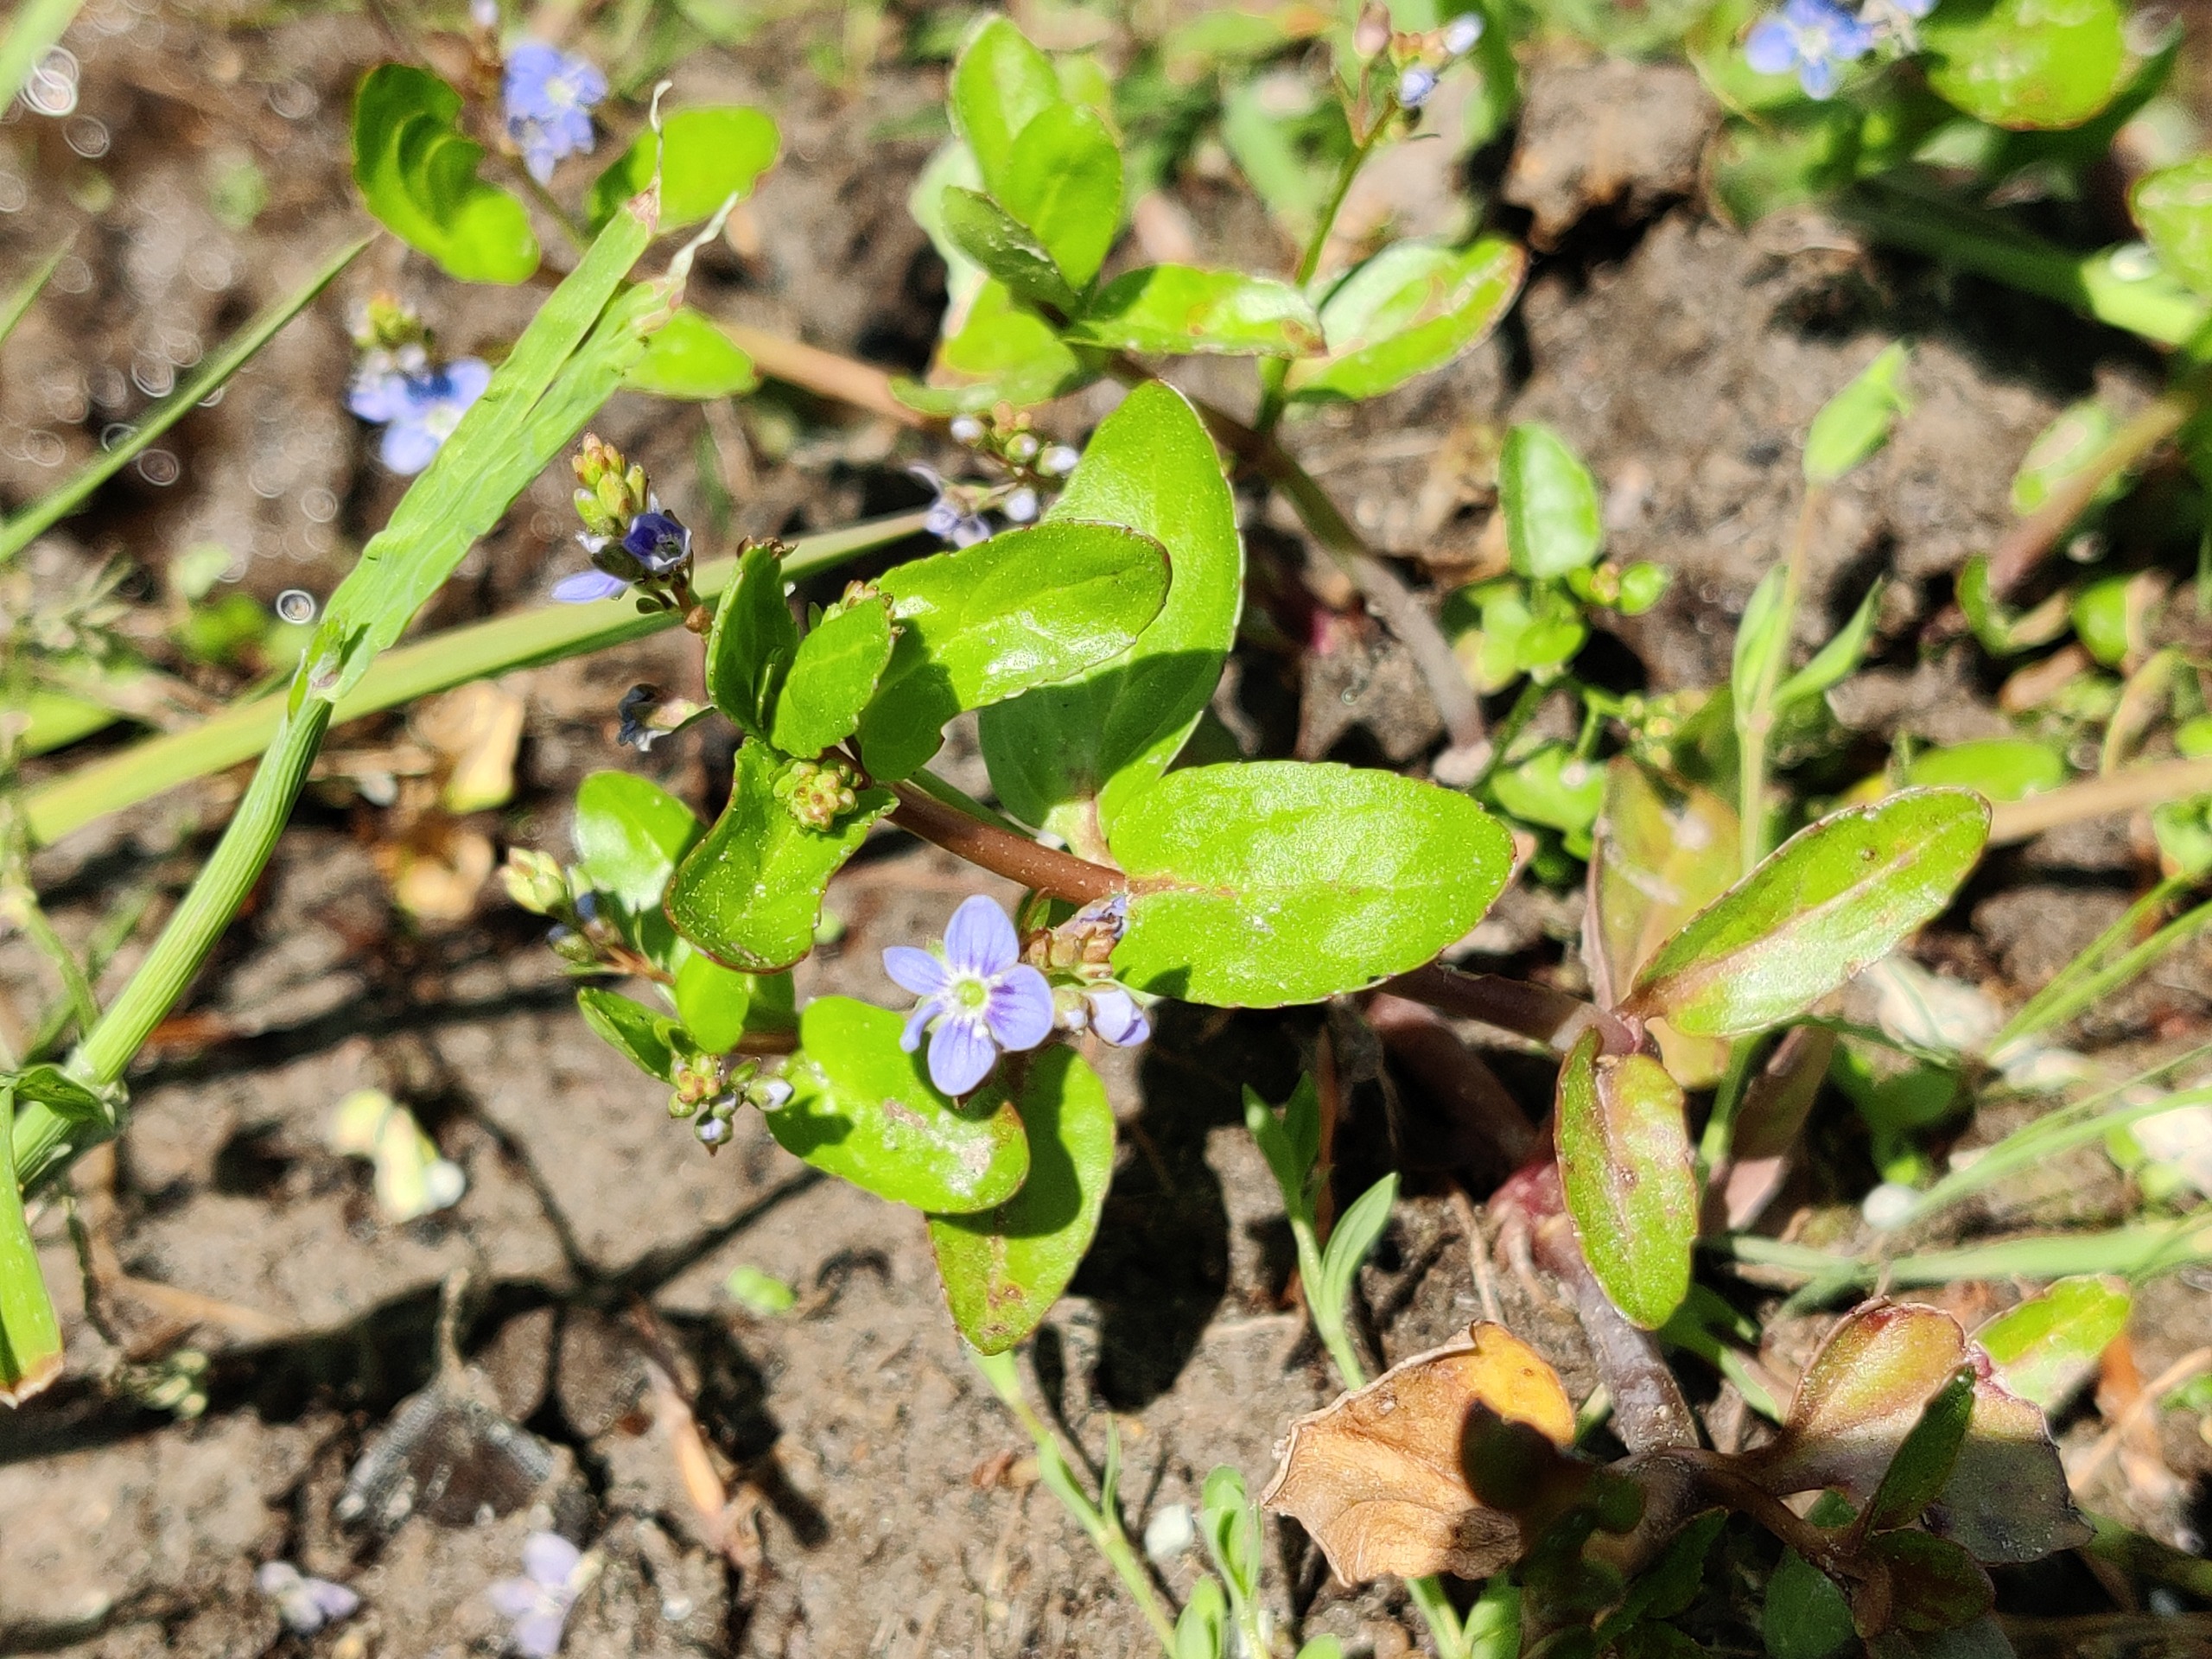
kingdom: Plantae
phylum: Tracheophyta
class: Magnoliopsida
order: Lamiales
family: Plantaginaceae
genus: Veronica
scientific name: Veronica beccabunga
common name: Tykbladet ærenpris
